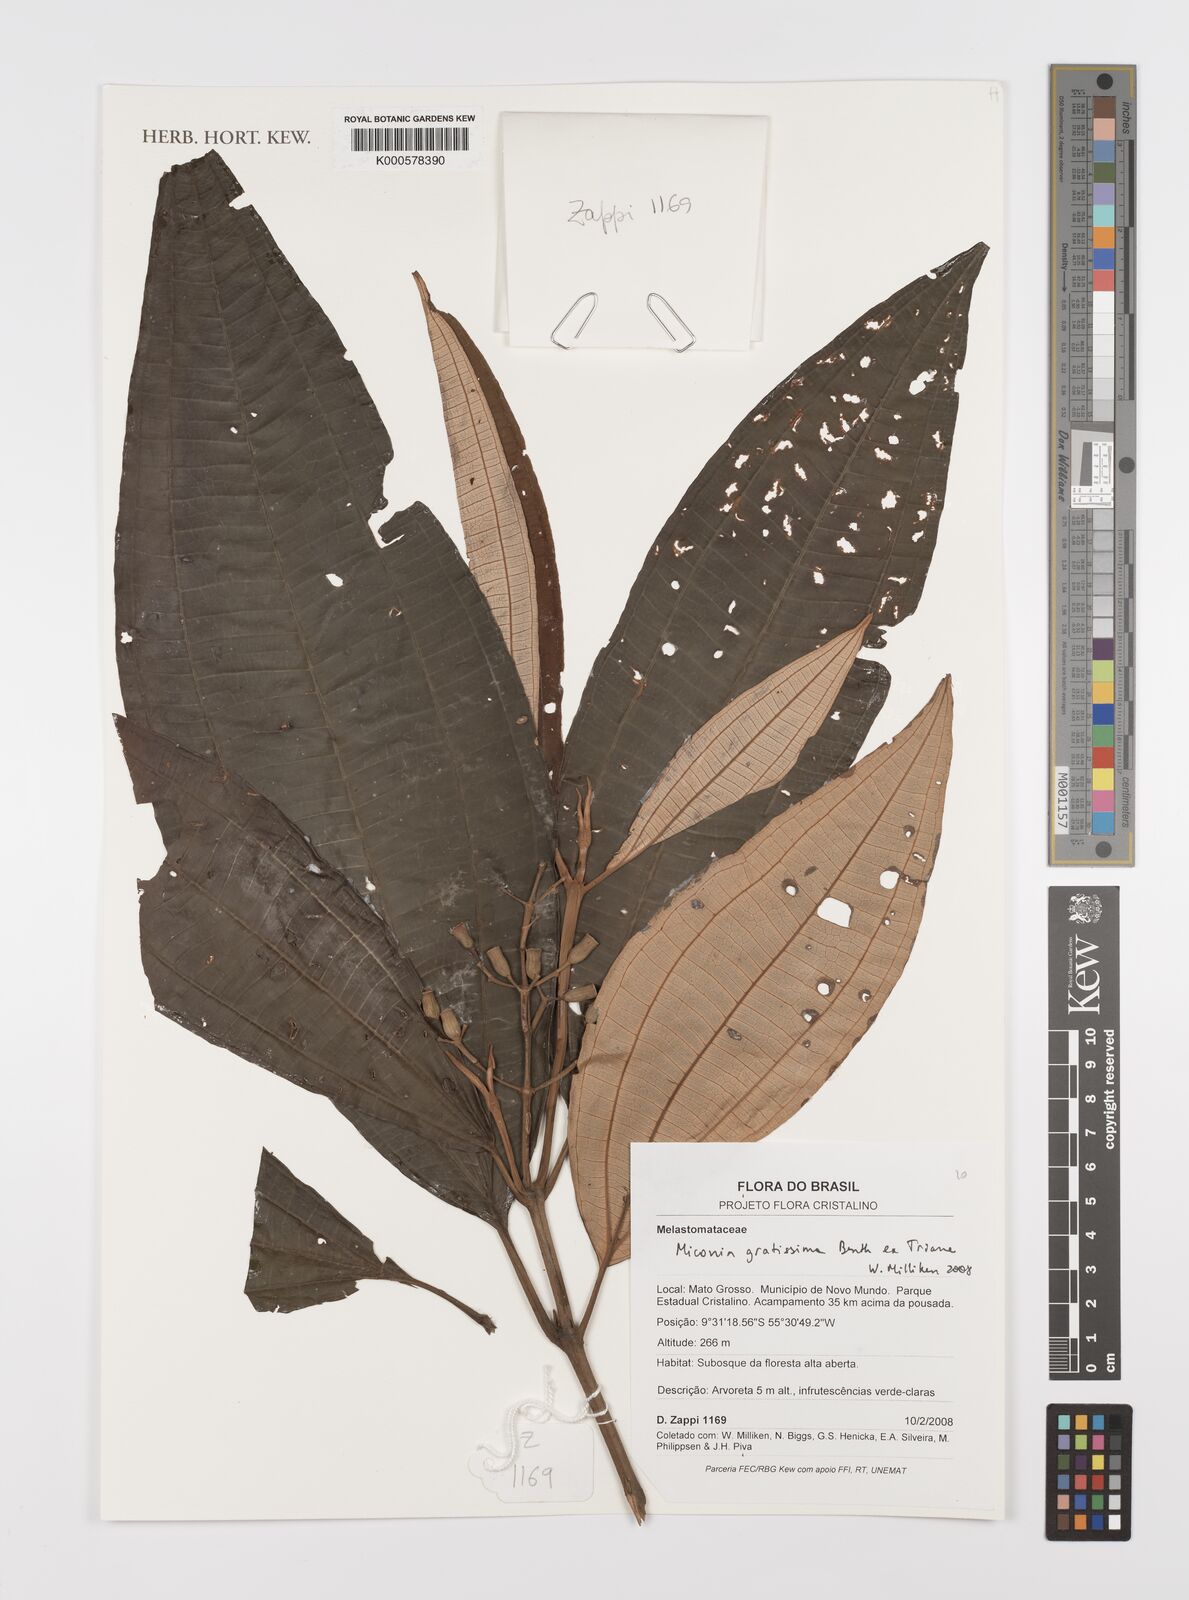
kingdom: Plantae
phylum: Tracheophyta
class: Magnoliopsida
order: Myrtales
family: Melastomataceae
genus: Miconia
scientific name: Miconia gratissima
